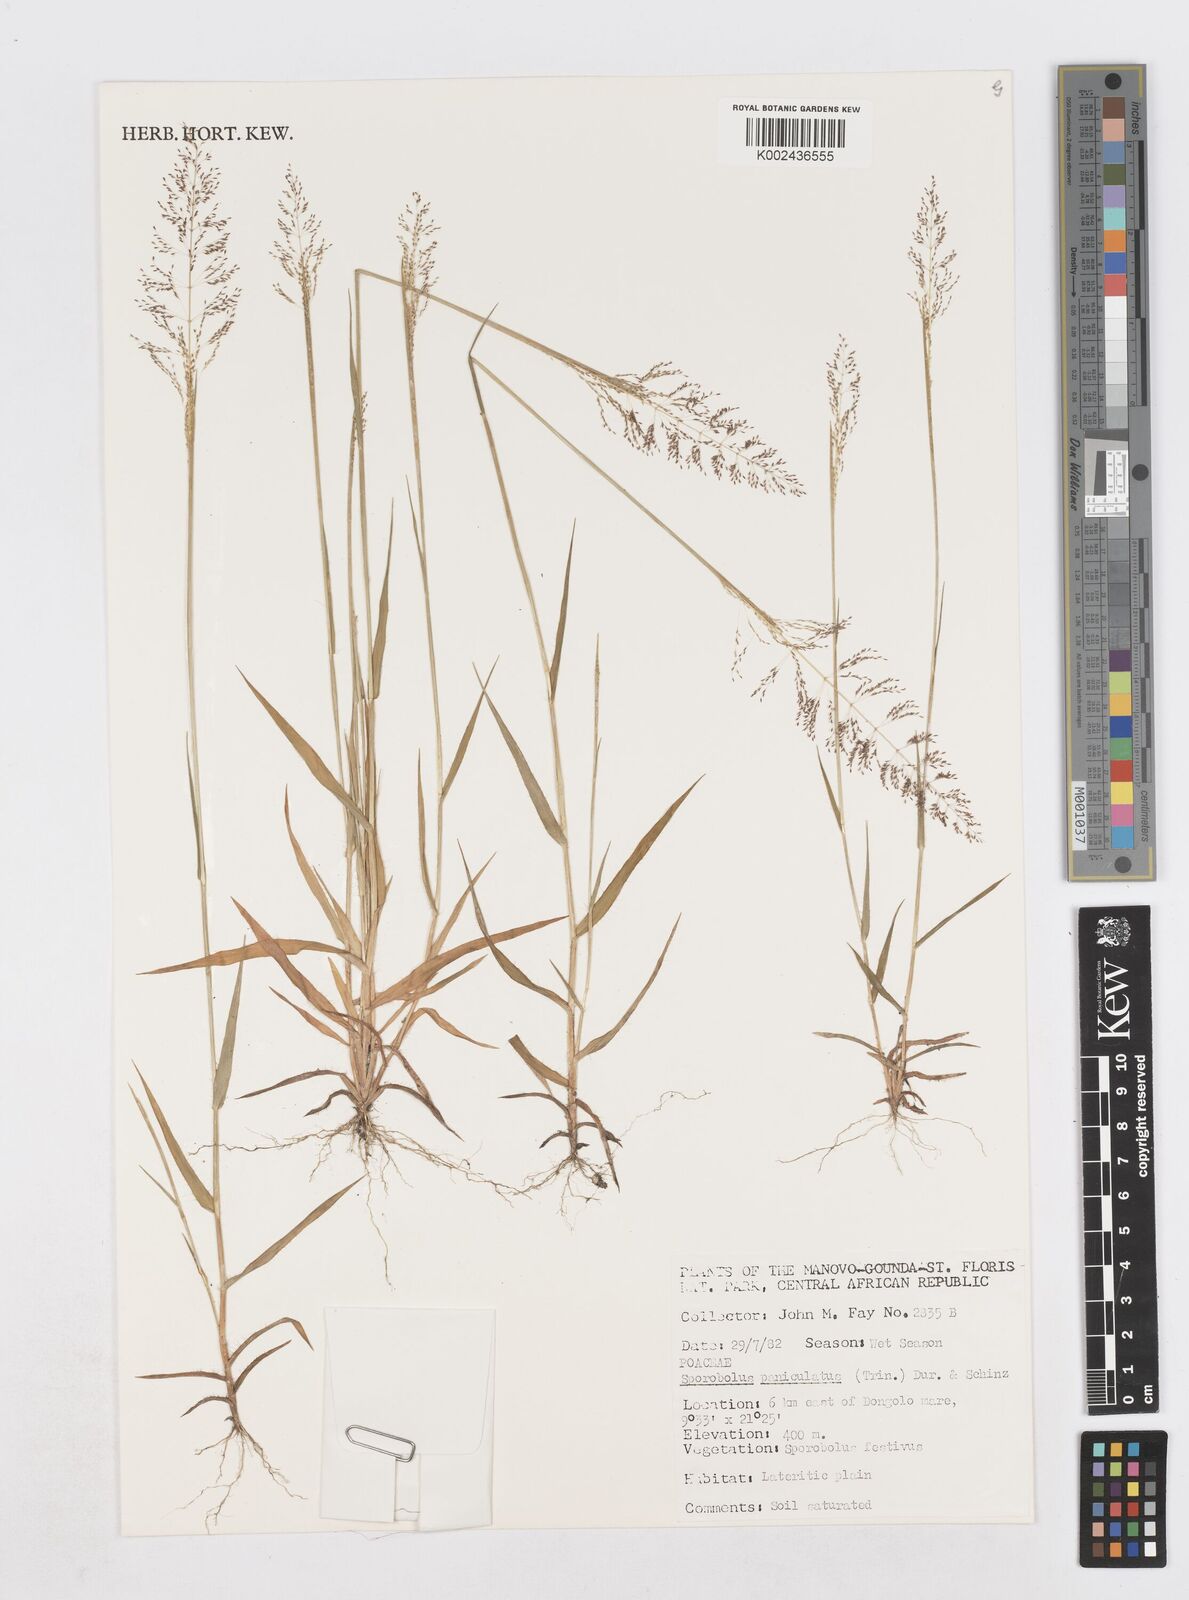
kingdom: Plantae
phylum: Tracheophyta
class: Liliopsida
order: Poales
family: Poaceae
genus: Sporobolus
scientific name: Sporobolus stolzii
